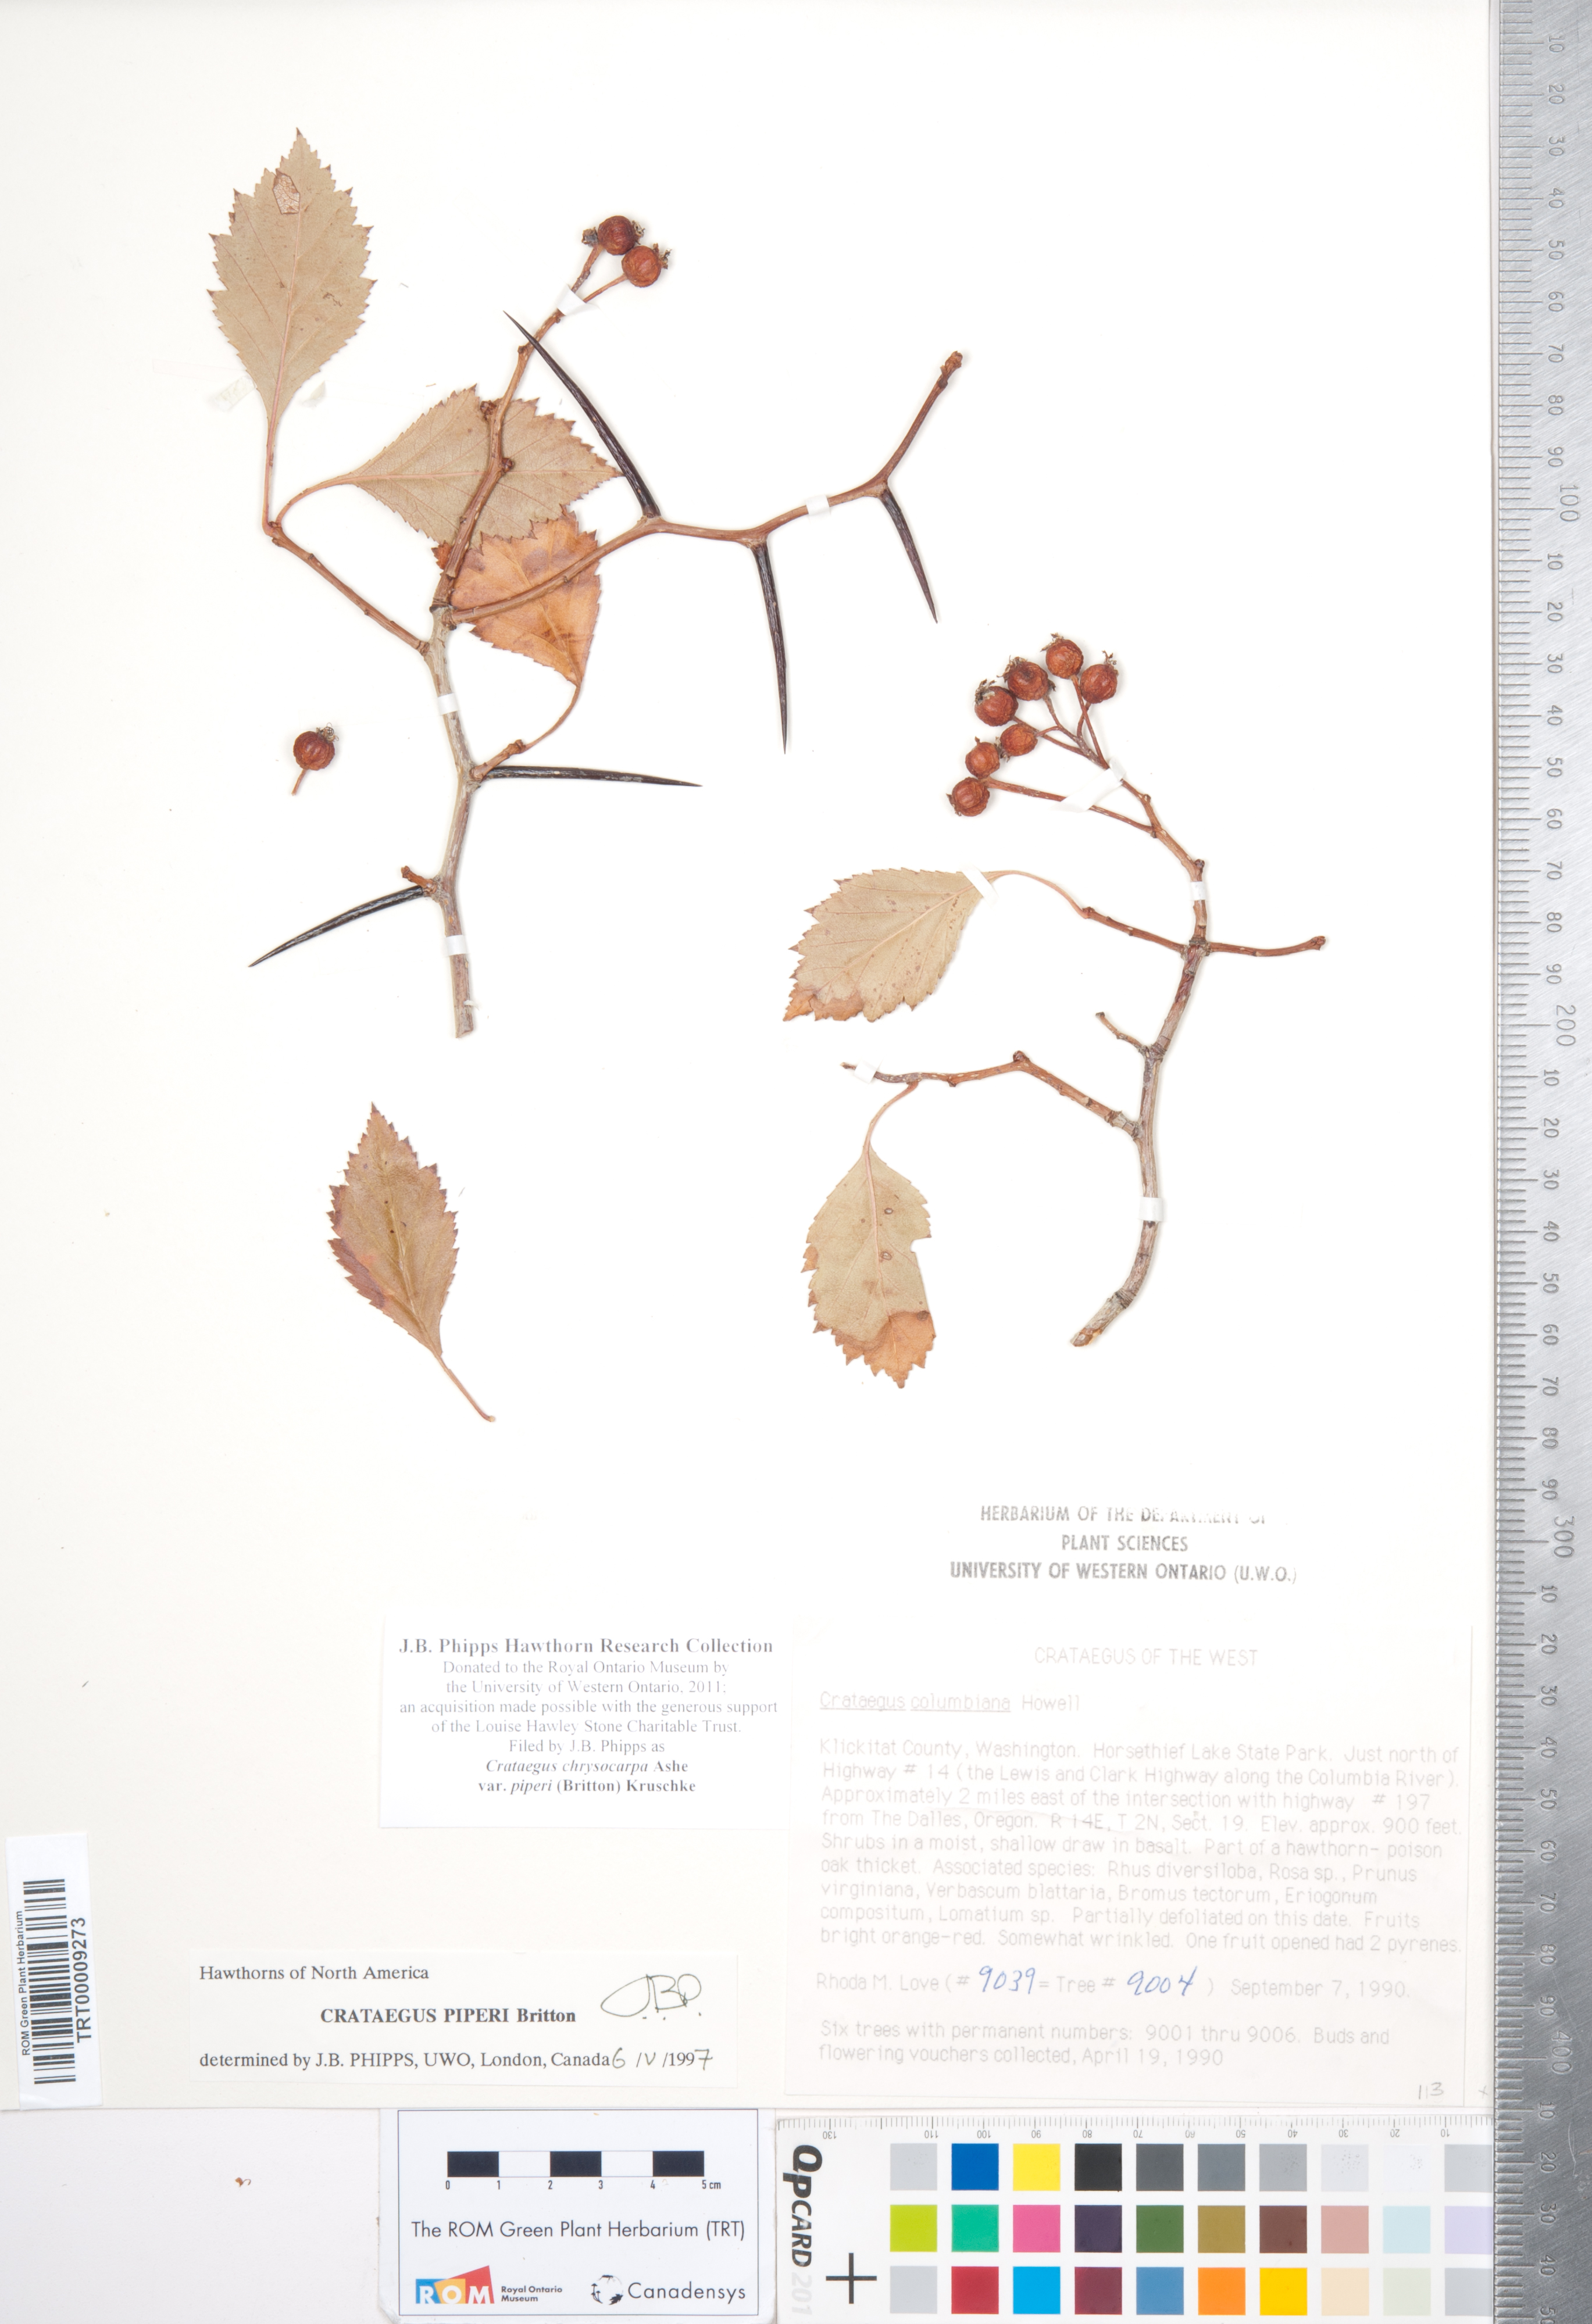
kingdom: Plantae
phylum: Tracheophyta
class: Magnoliopsida
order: Rosales
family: Rosaceae
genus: Crataegus
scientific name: Crataegus piperi
